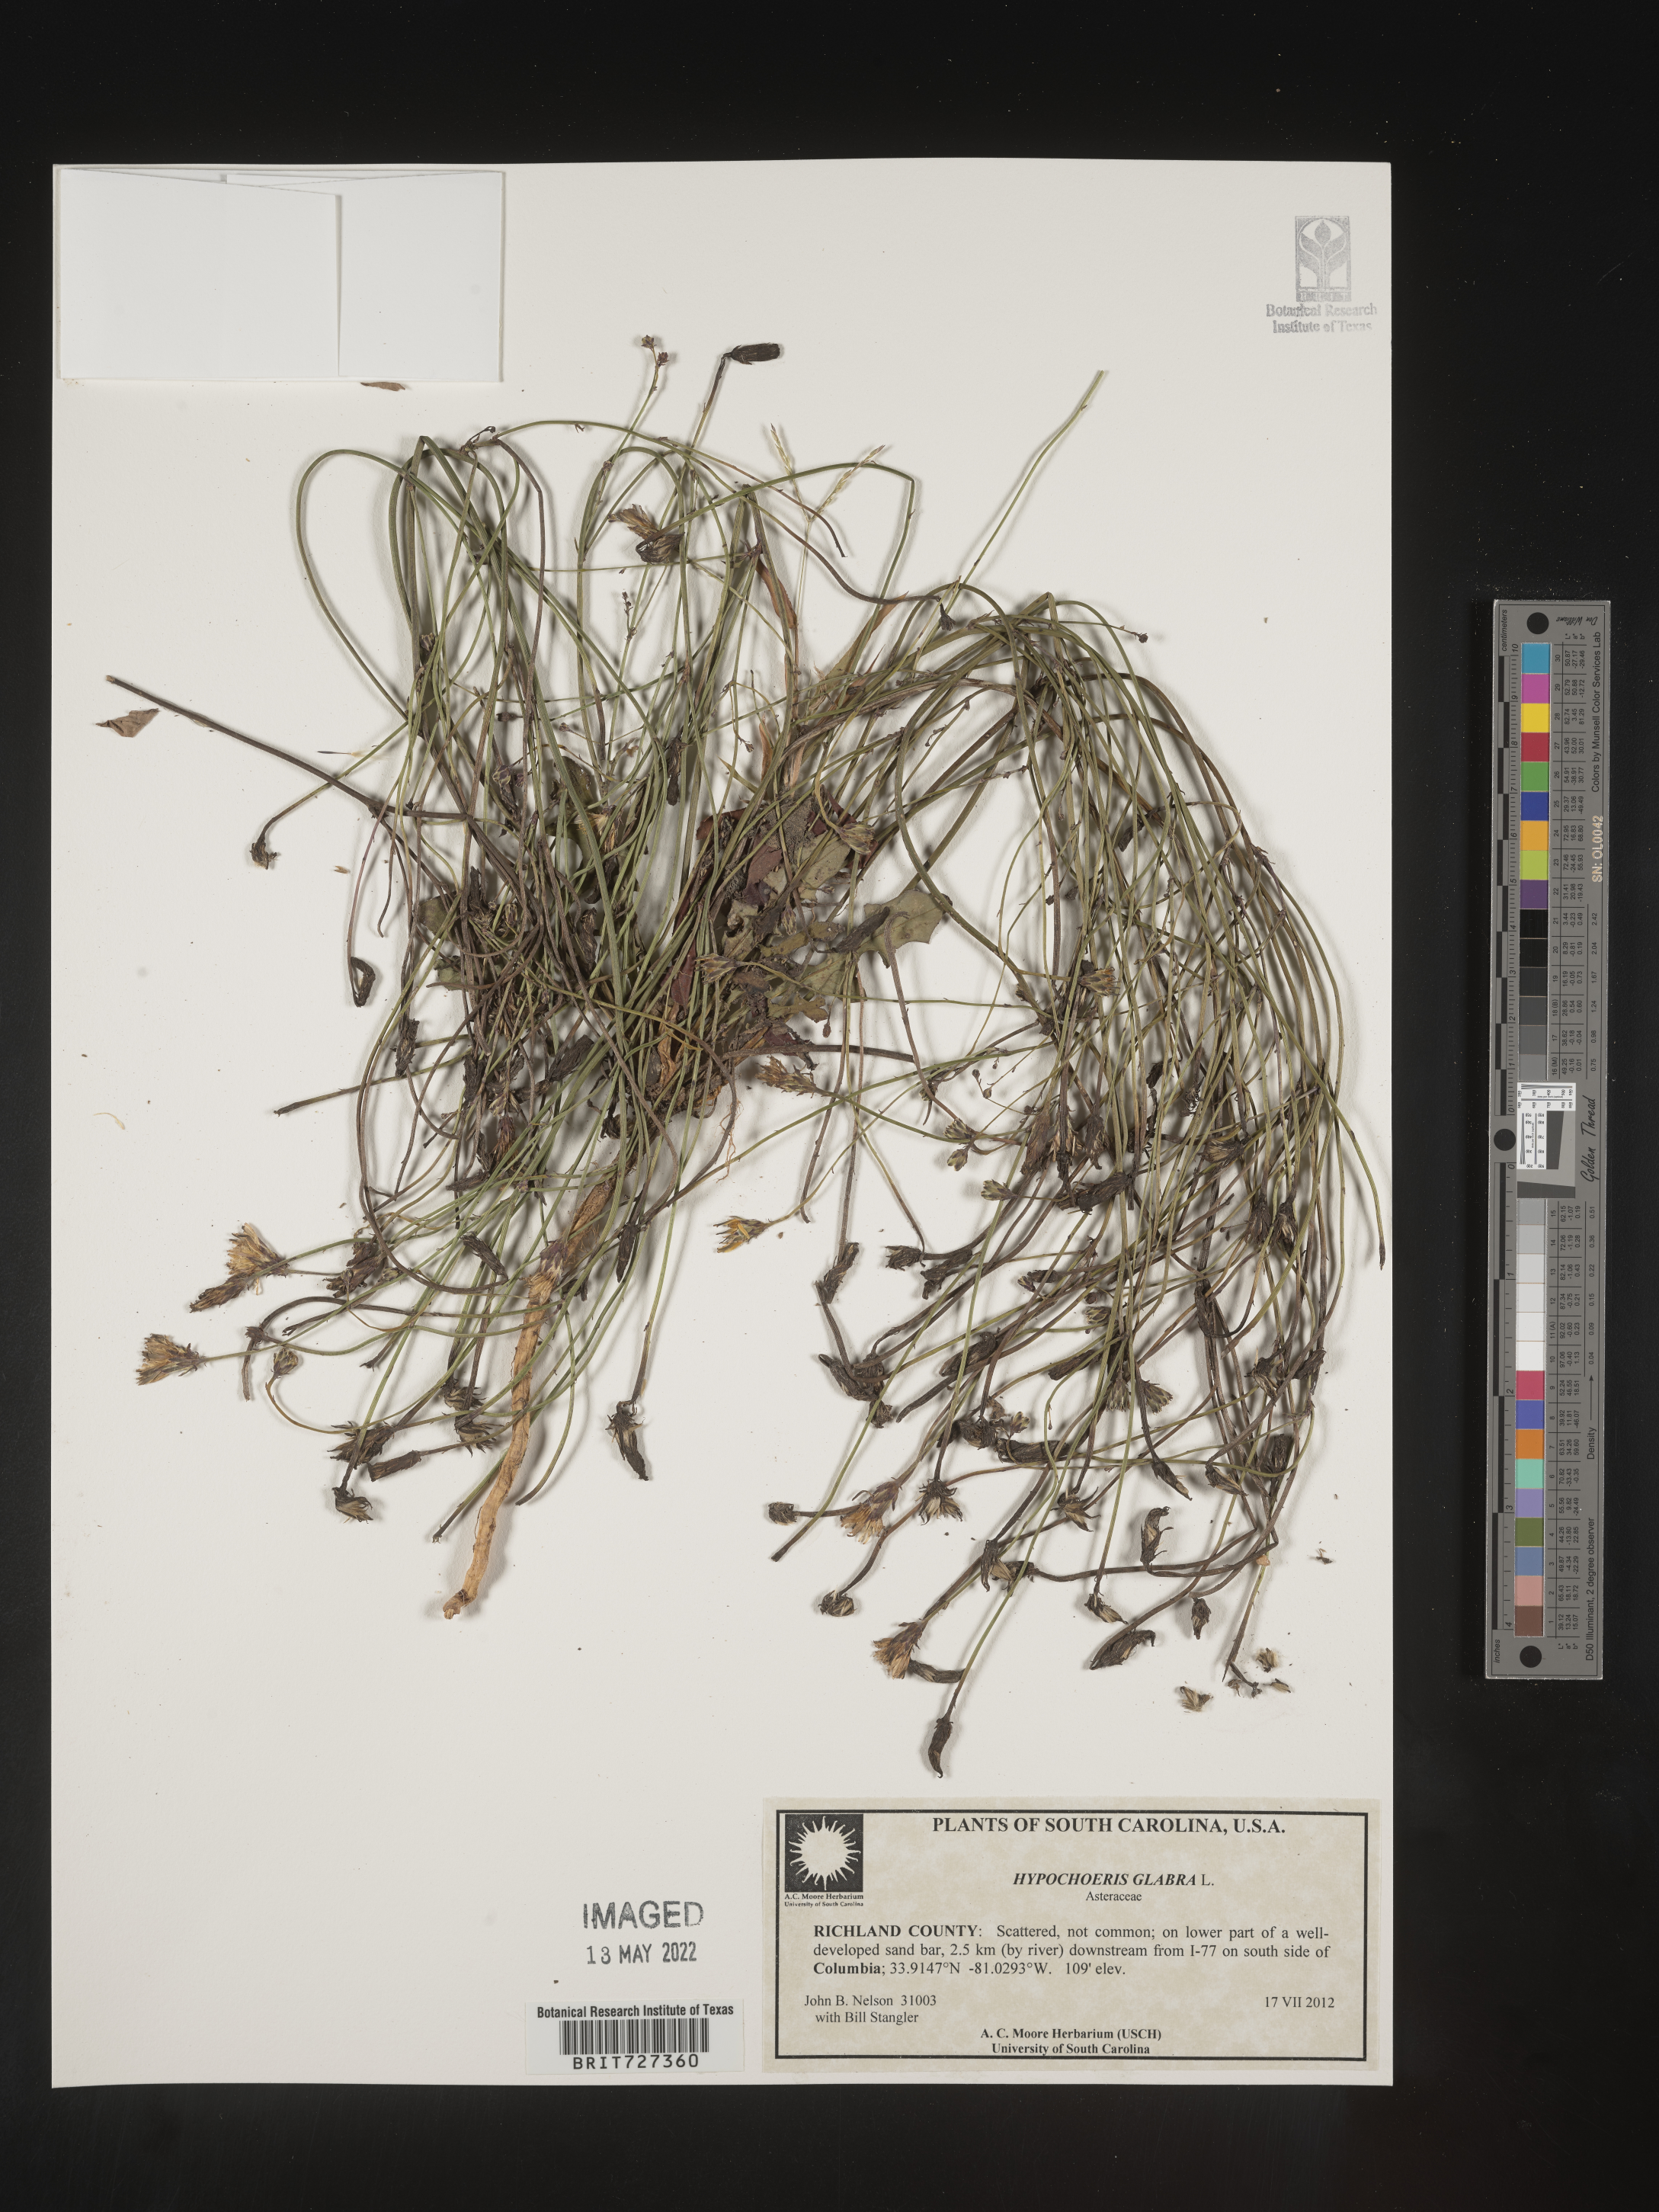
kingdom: Plantae
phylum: Tracheophyta
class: Magnoliopsida
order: Asterales
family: Asteraceae
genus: Hypochaeris
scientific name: Hypochaeris glabra
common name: Smooth catsear
